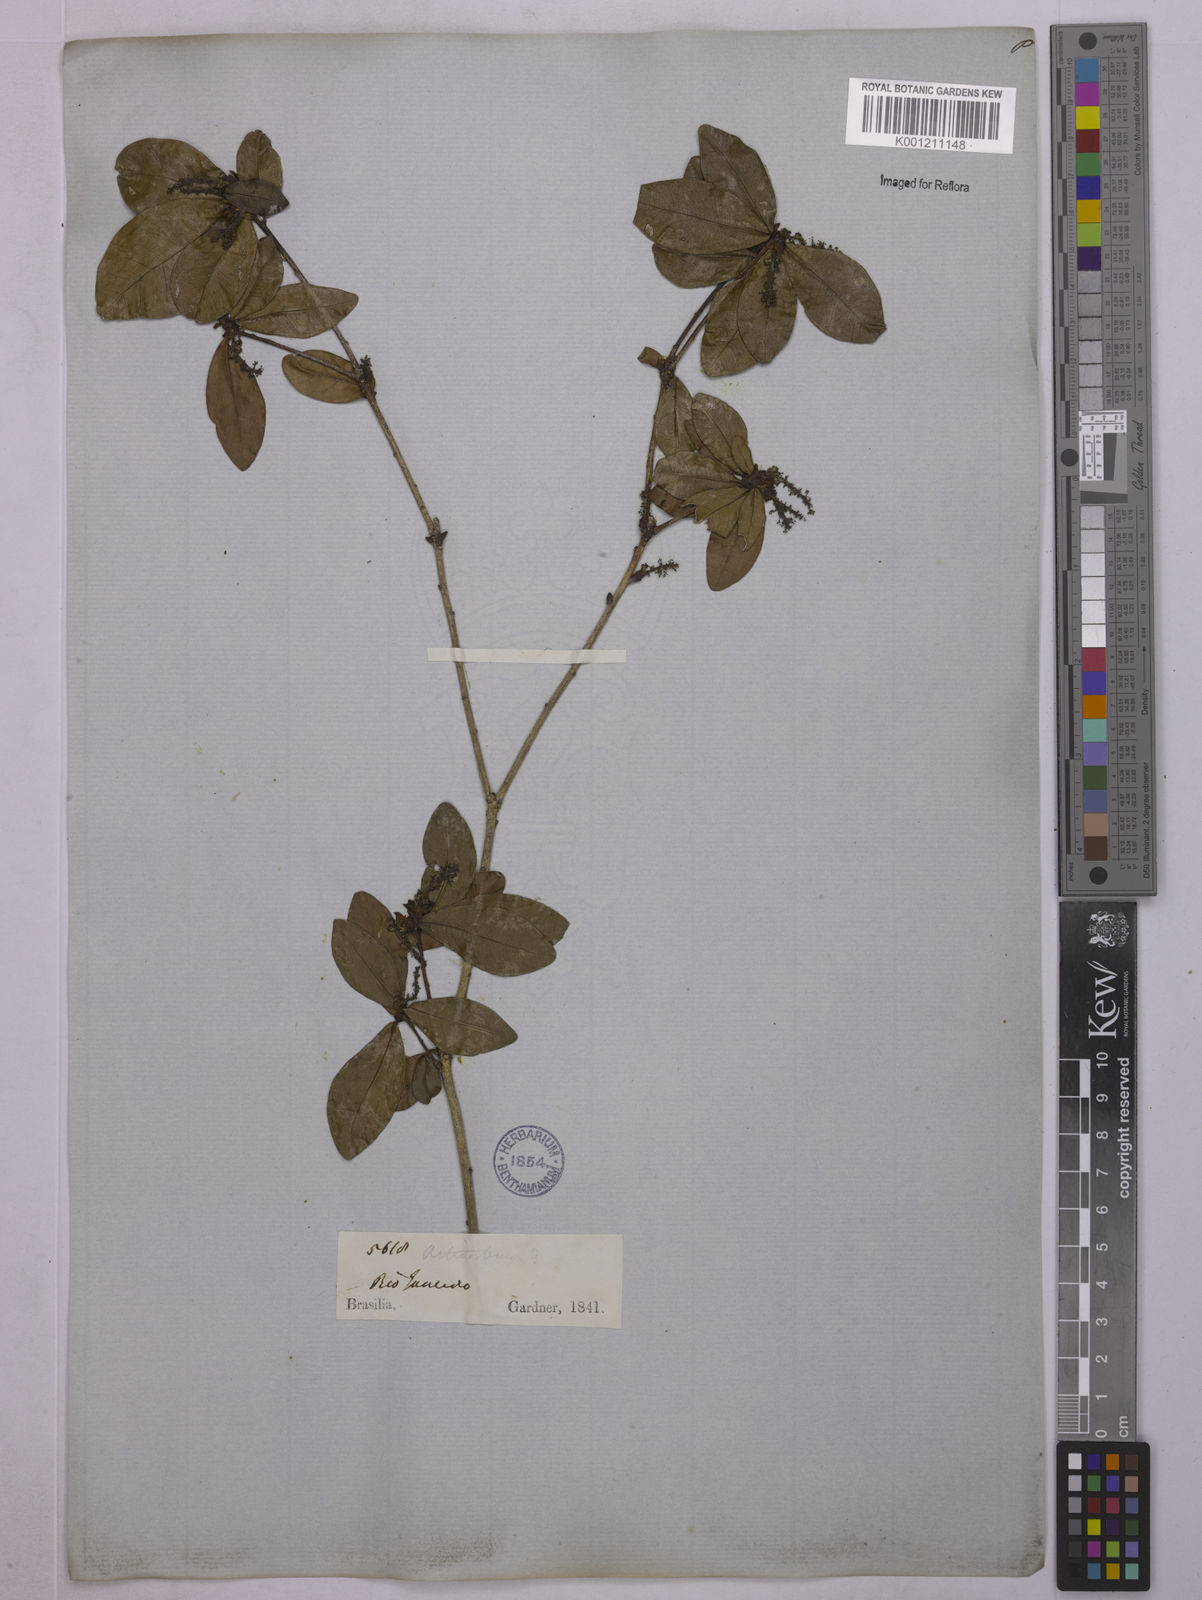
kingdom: Plantae
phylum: Tracheophyta
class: Magnoliopsida
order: Malpighiales
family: Euphorbiaceae
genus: Actinostemon
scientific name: Actinostemon verticillatus
